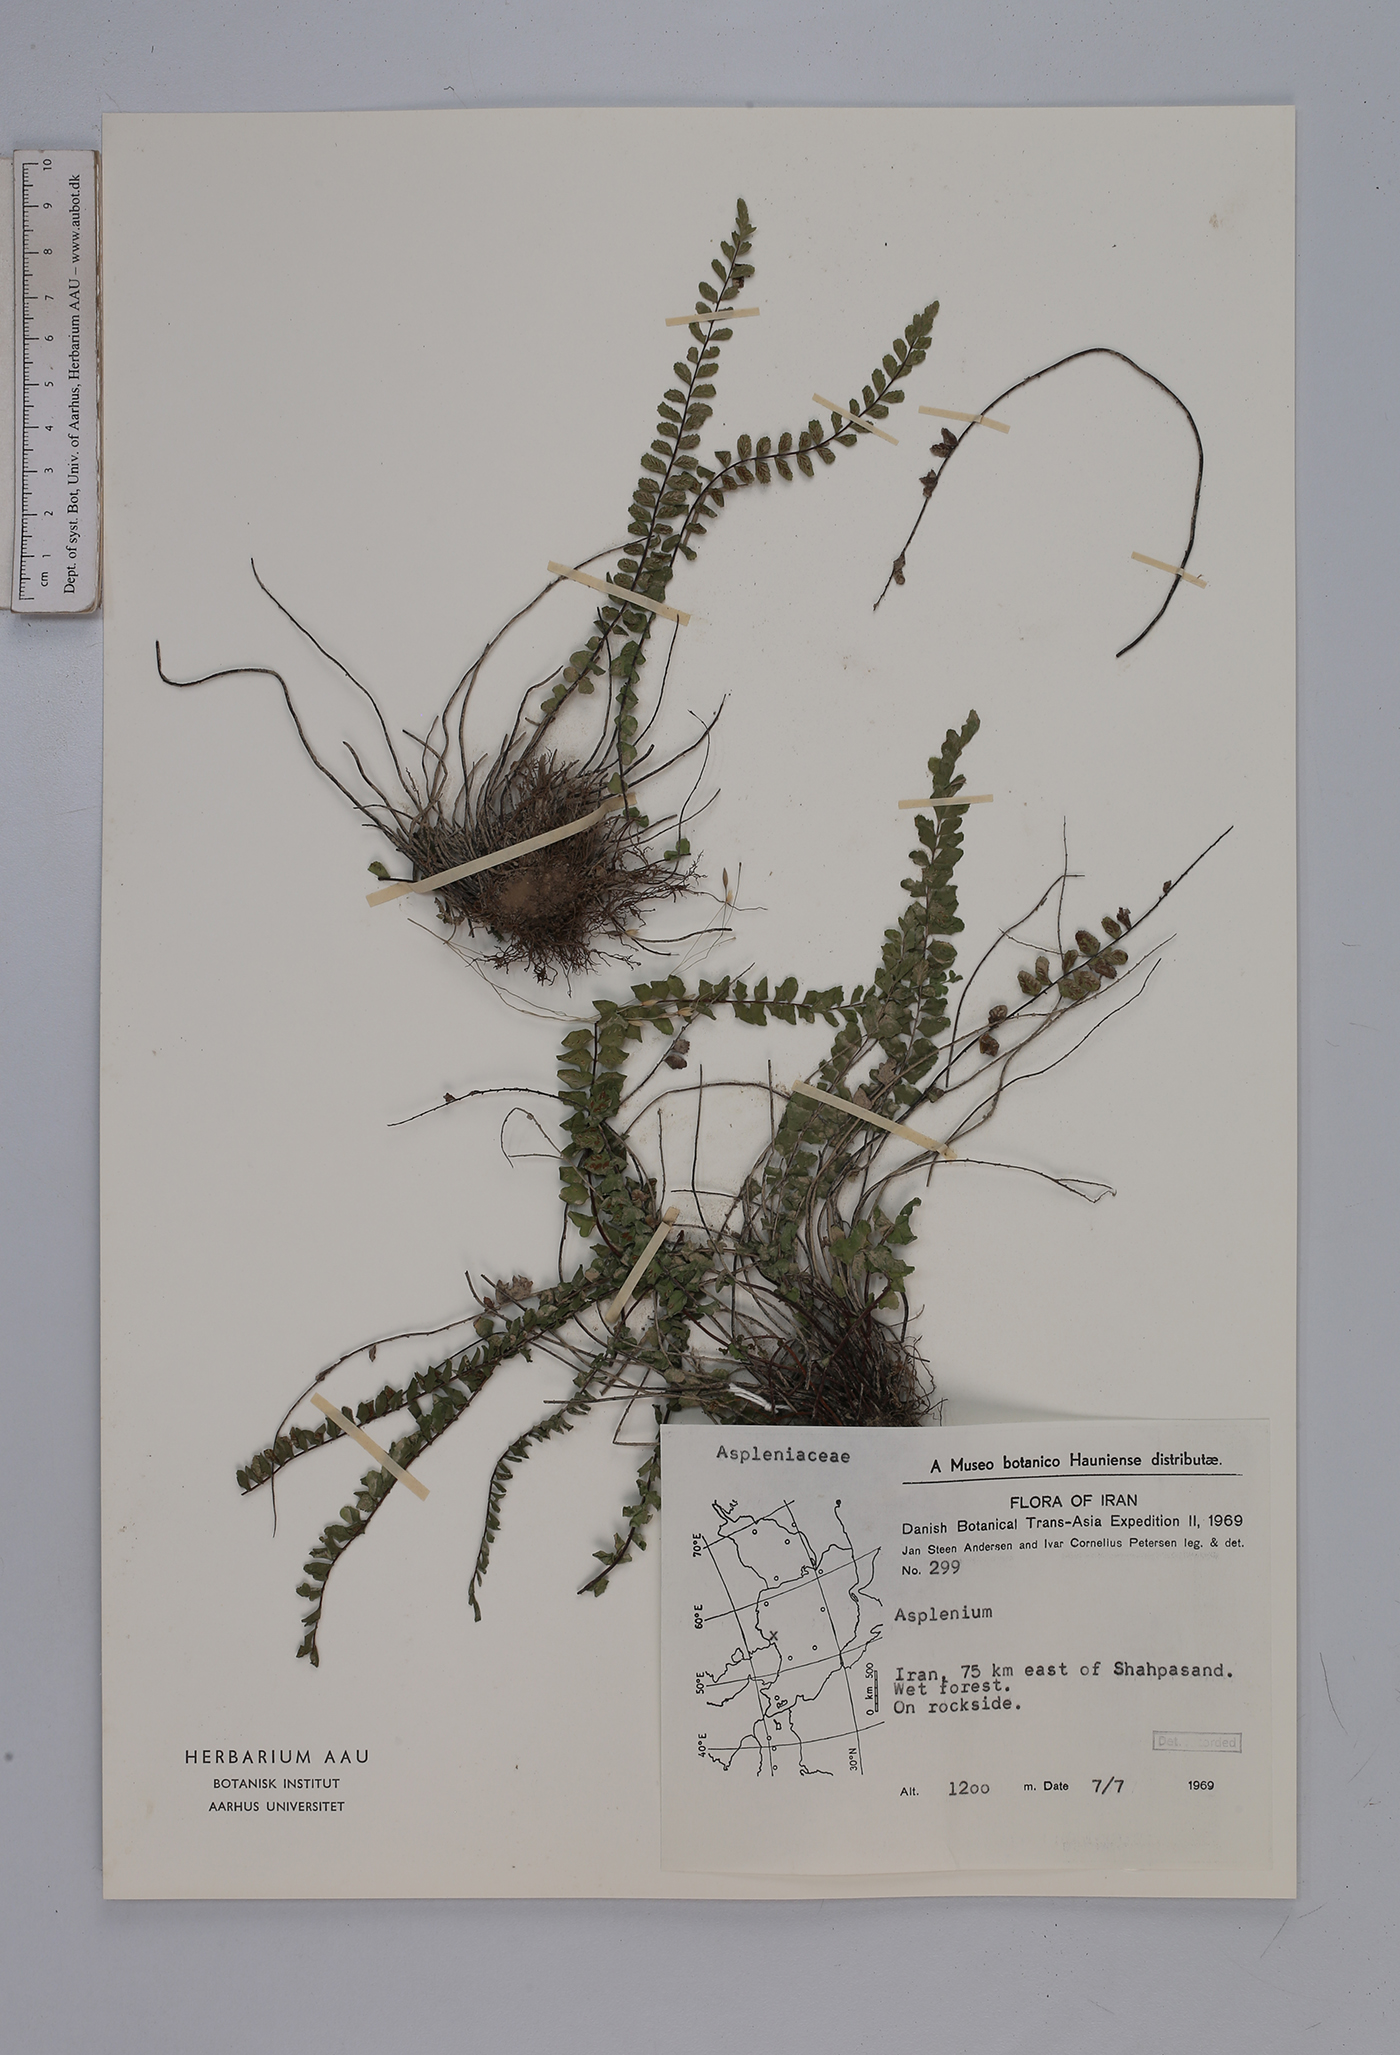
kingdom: Plantae
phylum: Tracheophyta
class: Polypodiopsida
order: Polypodiales
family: Aspleniaceae
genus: Asplenium
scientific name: Asplenium trichomanes
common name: Maidenhair spleenwort
